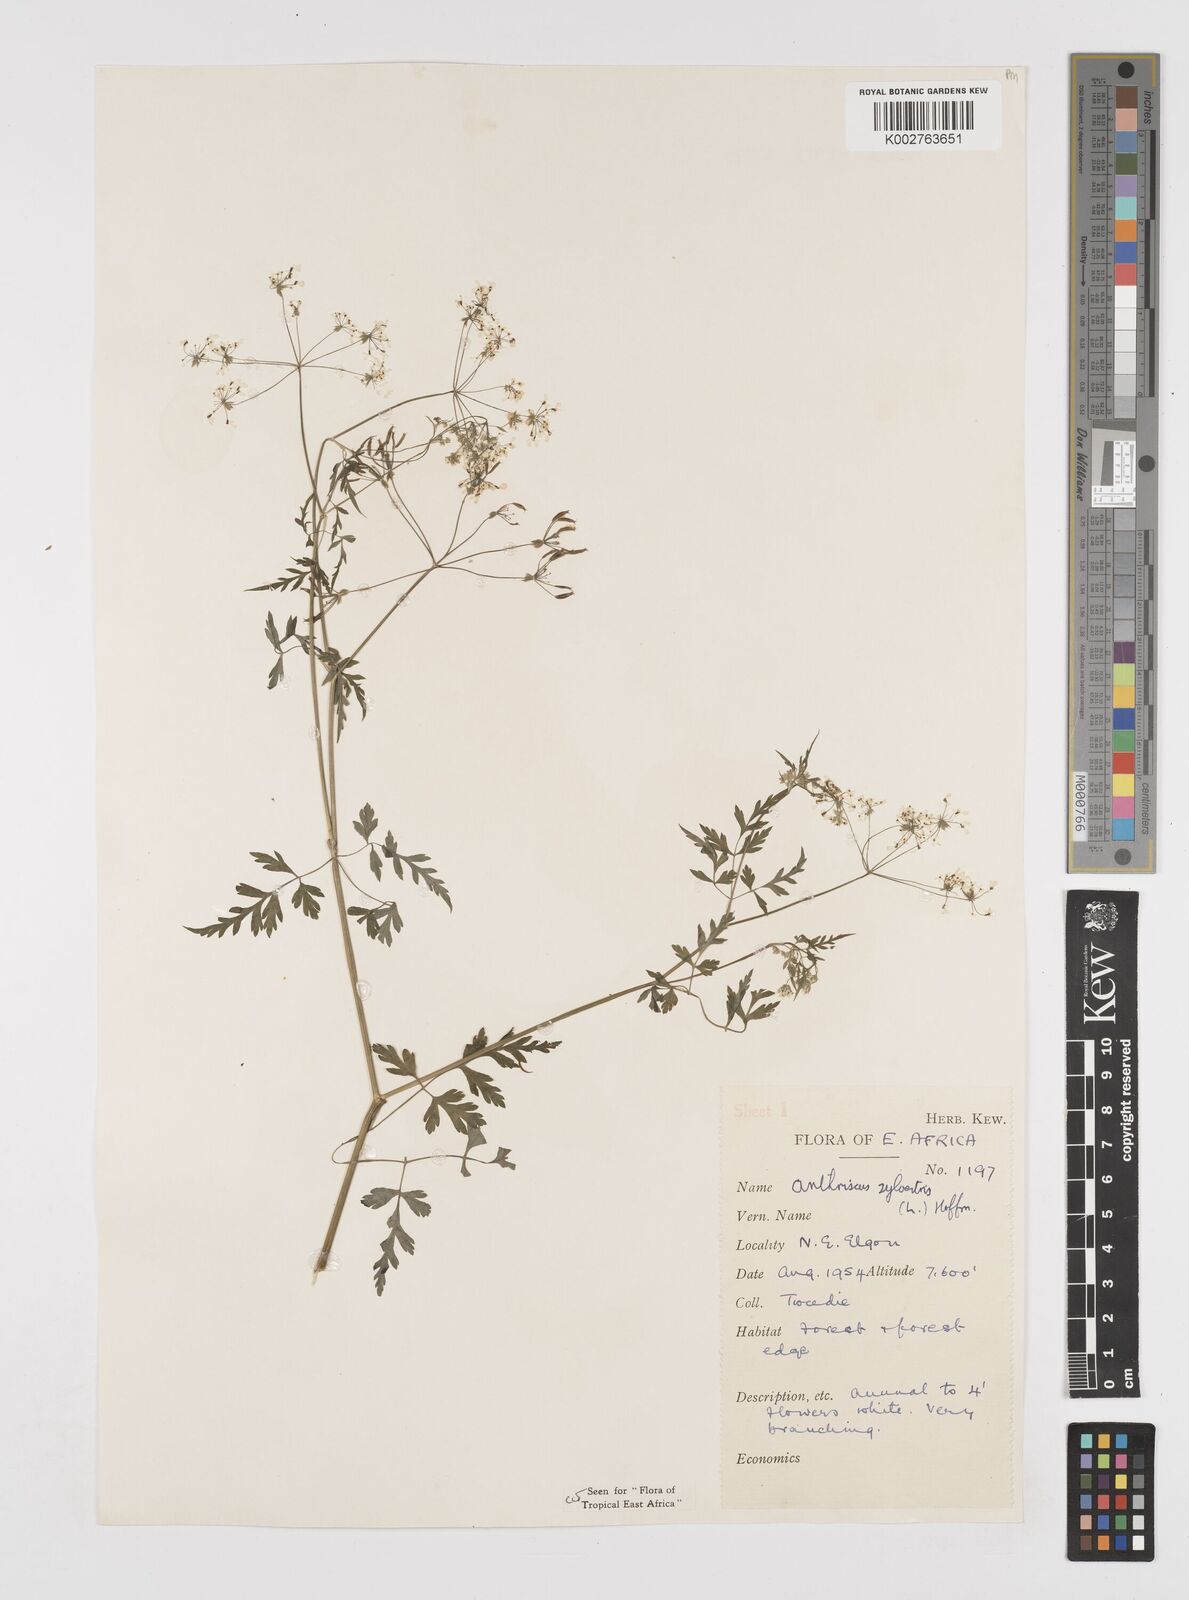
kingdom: Plantae
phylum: Tracheophyta
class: Magnoliopsida
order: Apiales
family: Apiaceae
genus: Anthriscus
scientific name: Anthriscus sylvestris
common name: Cow parsley
